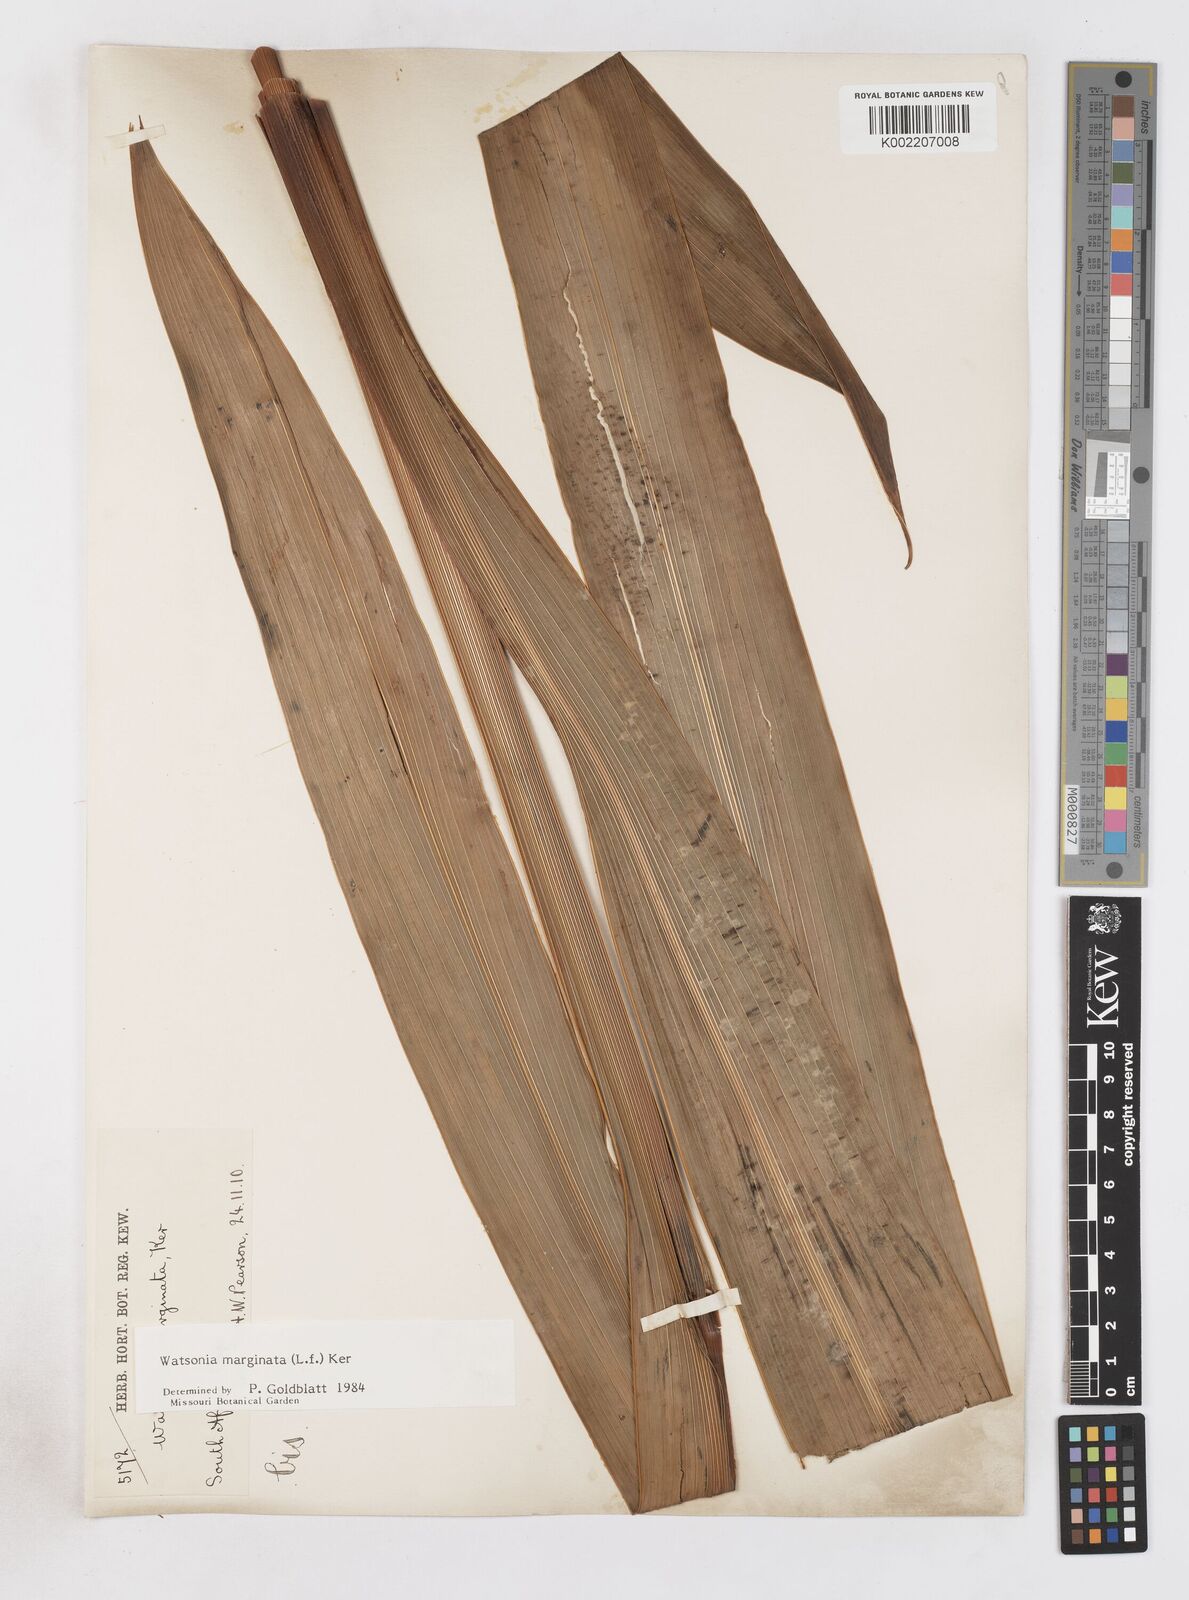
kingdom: Plantae
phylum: Tracheophyta
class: Liliopsida
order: Asparagales
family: Iridaceae
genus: Watsonia
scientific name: Watsonia marginata
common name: Fragrant bugle-lily
